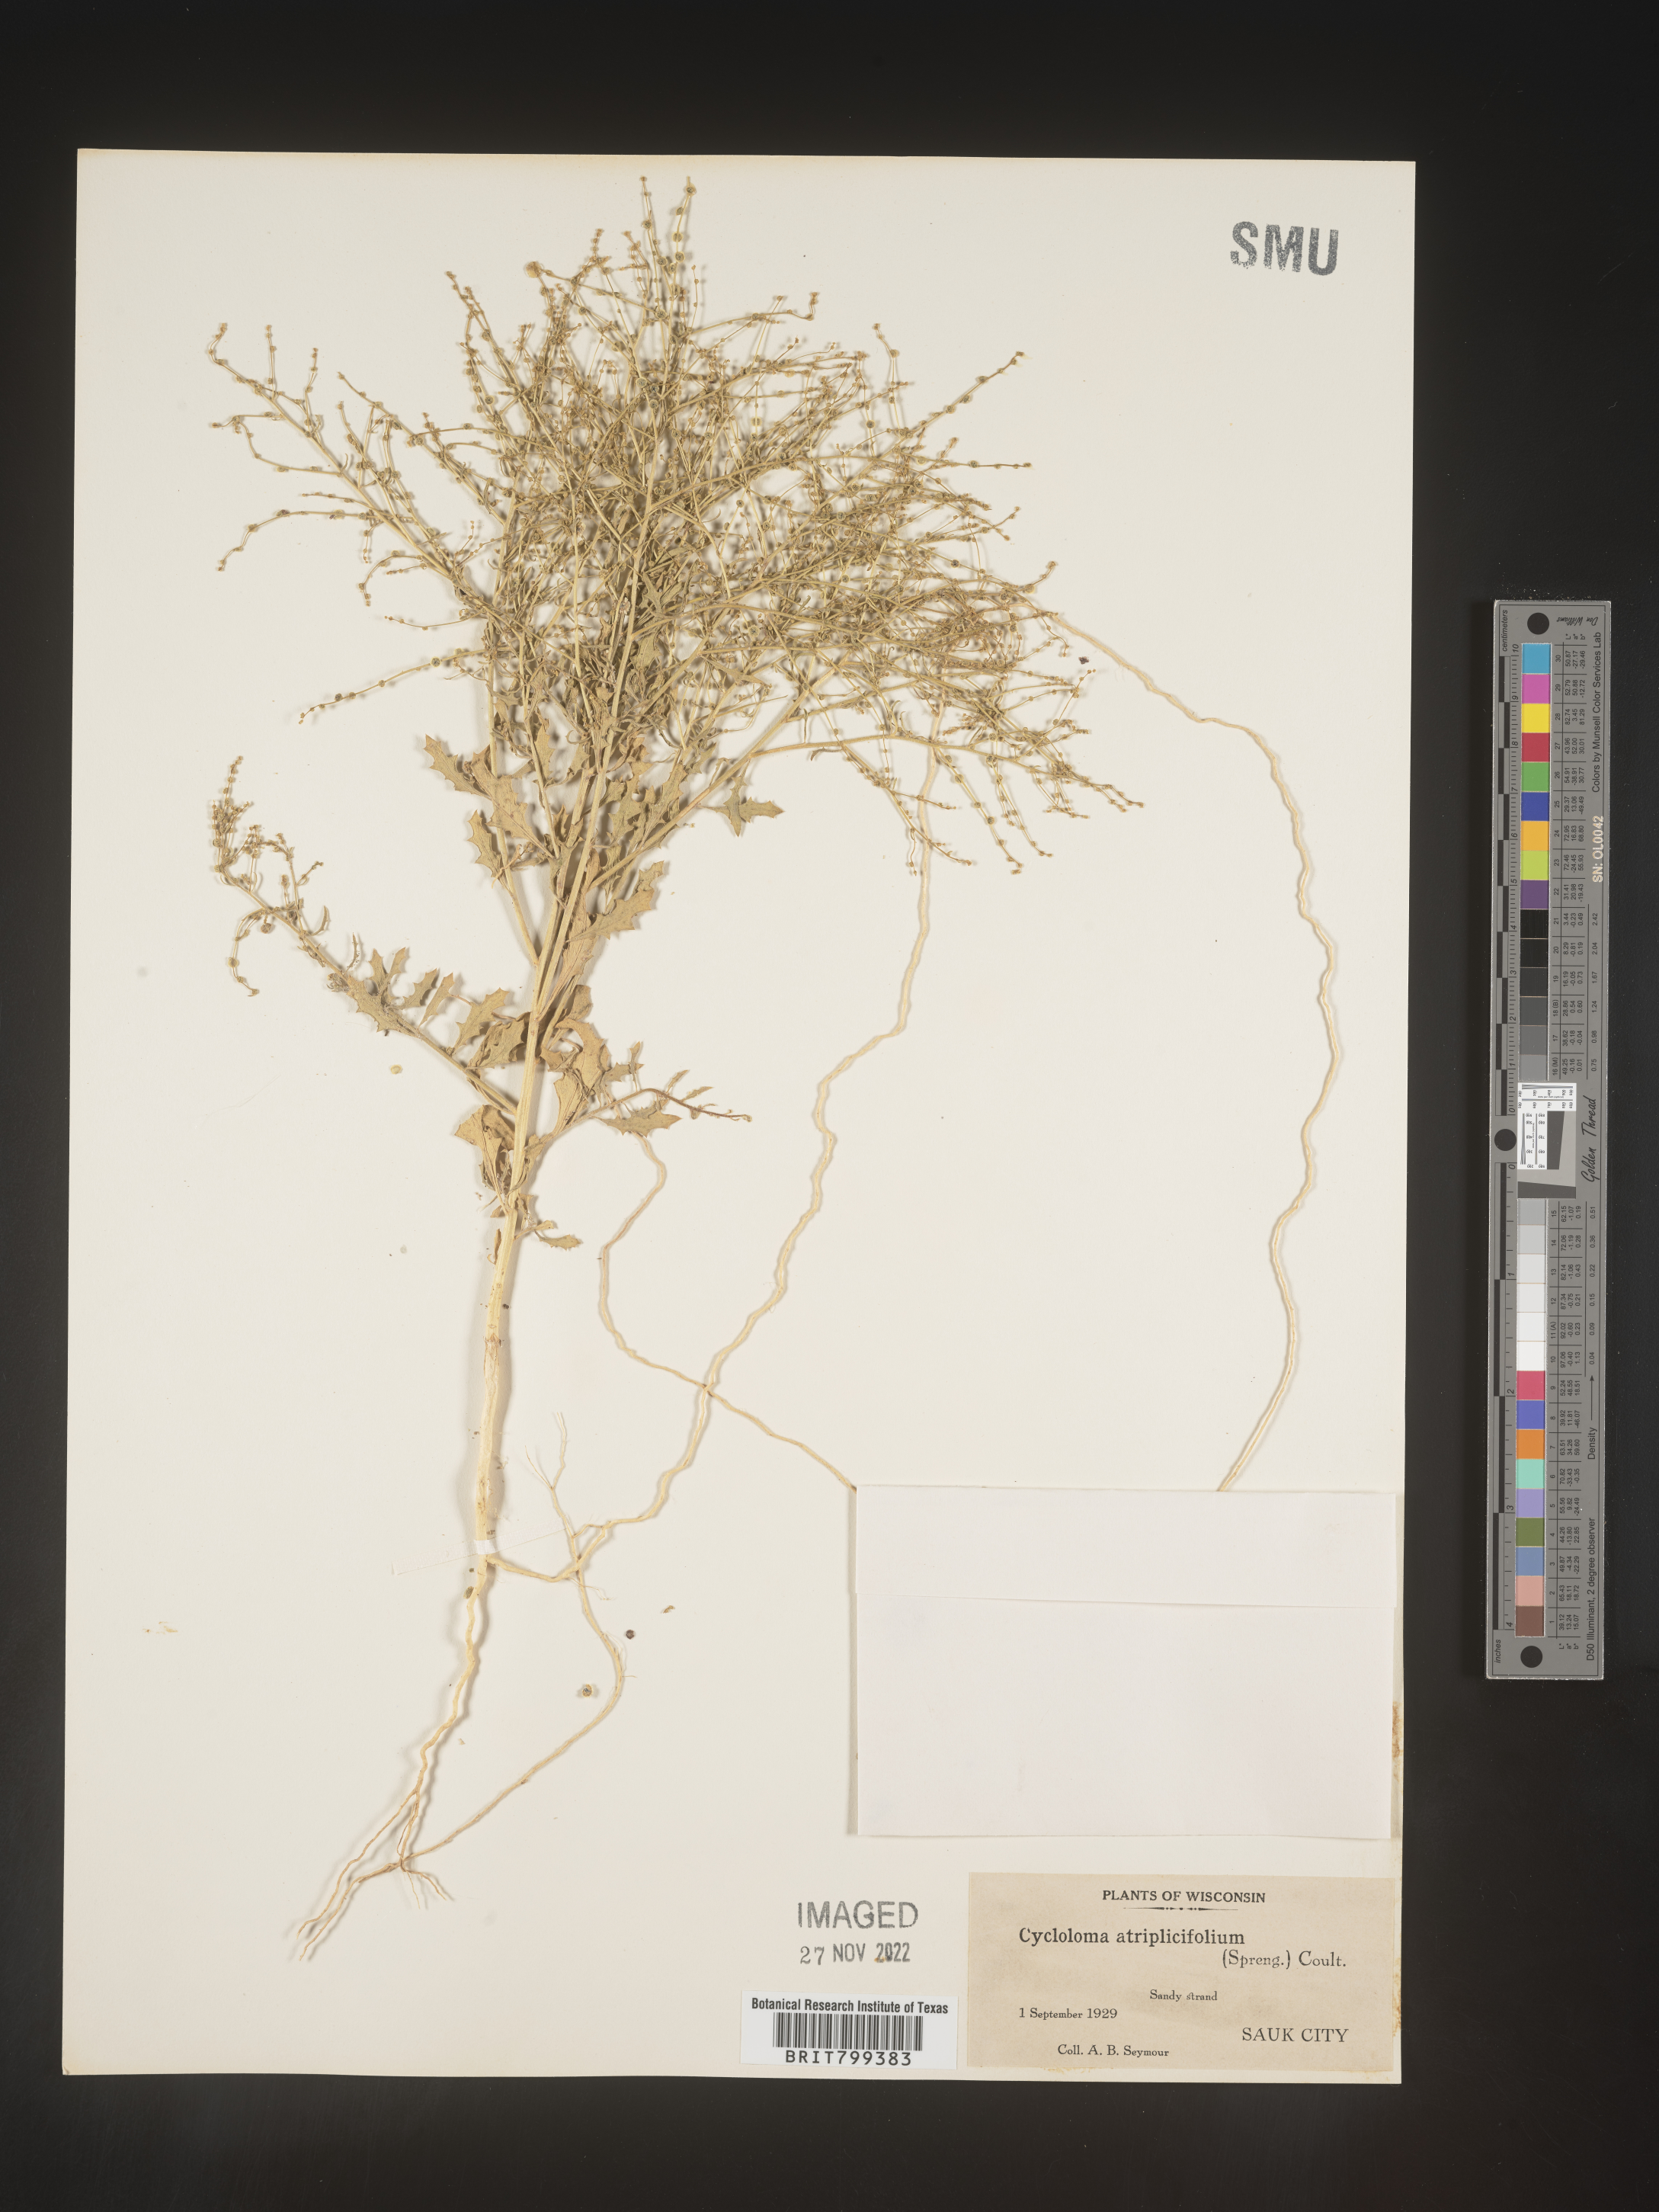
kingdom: Plantae
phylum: Tracheophyta
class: Magnoliopsida
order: Caryophyllales
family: Amaranthaceae
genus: Dysphania
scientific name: Dysphania atriplicifolia
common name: Plains tumbleweed
